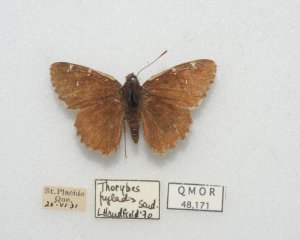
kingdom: Animalia
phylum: Arthropoda
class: Insecta
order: Lepidoptera
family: Hesperiidae
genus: Autochton
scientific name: Autochton
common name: Northern Cloudywing
